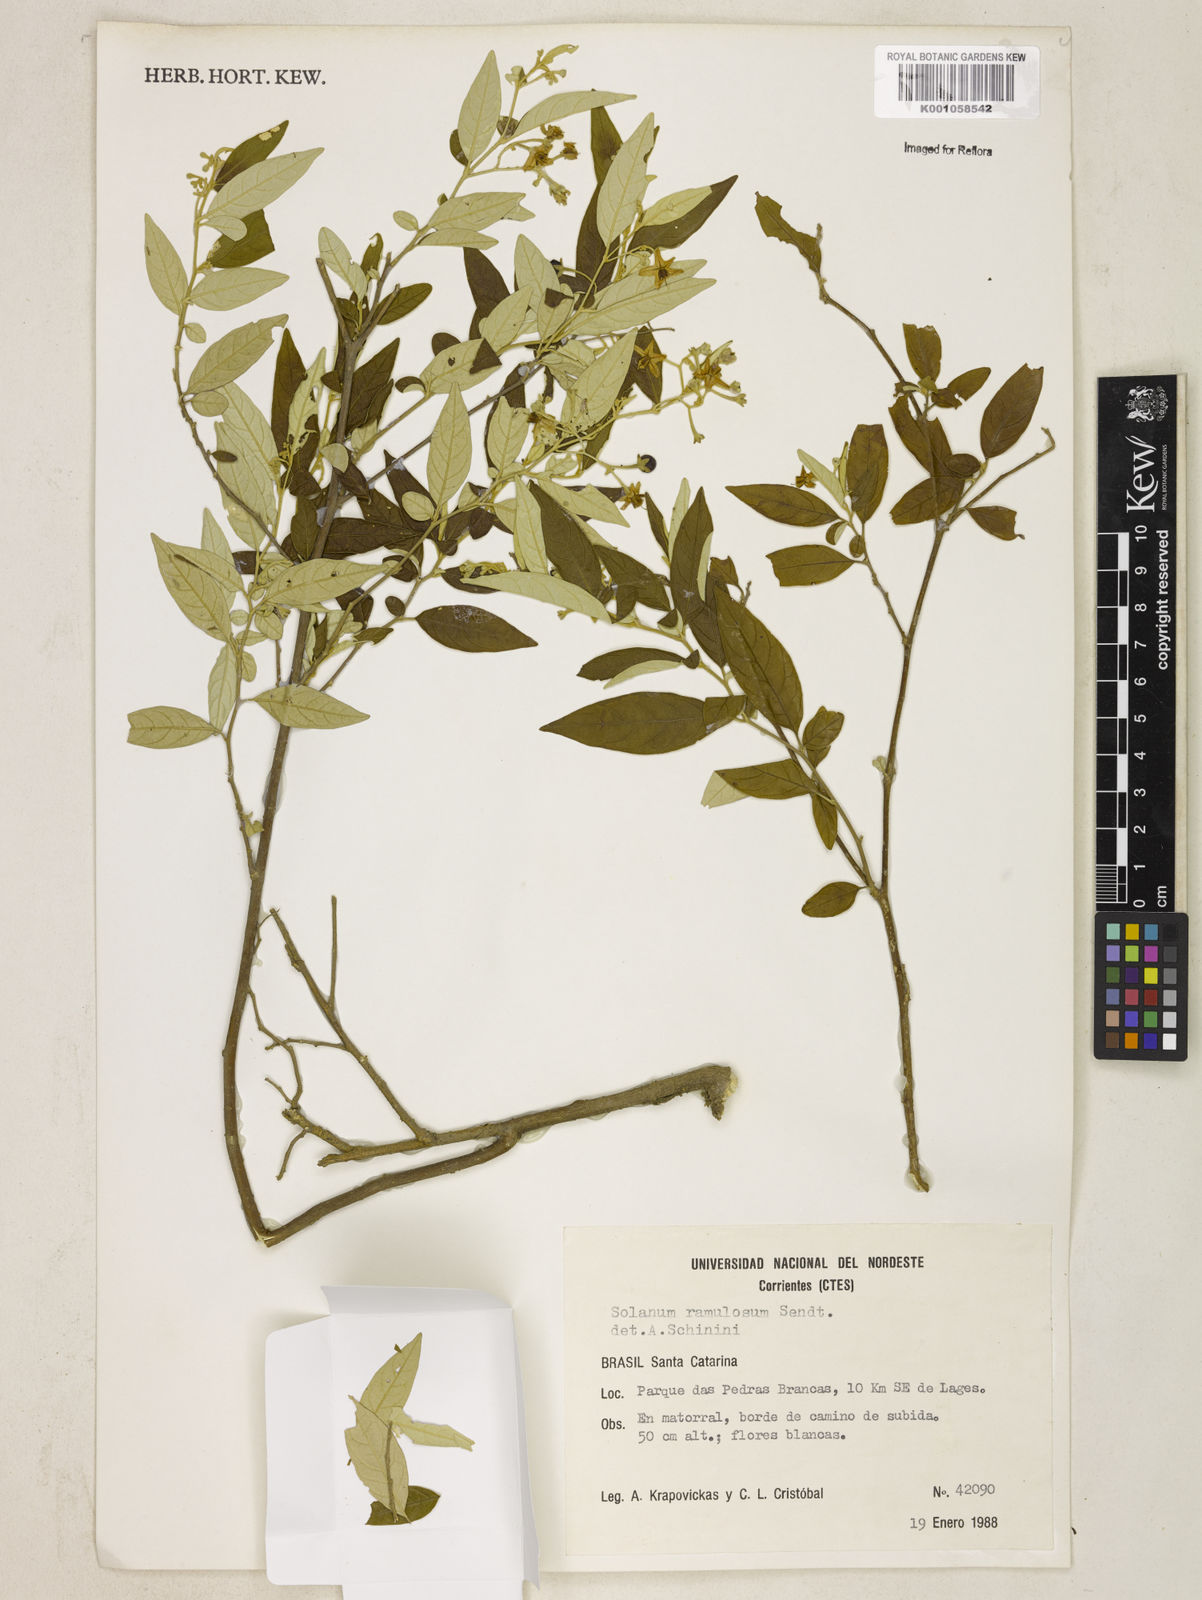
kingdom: Plantae
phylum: Tracheophyta
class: Magnoliopsida
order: Solanales
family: Solanaceae
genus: Solanum
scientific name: Solanum quitoense
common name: Quito-orange
